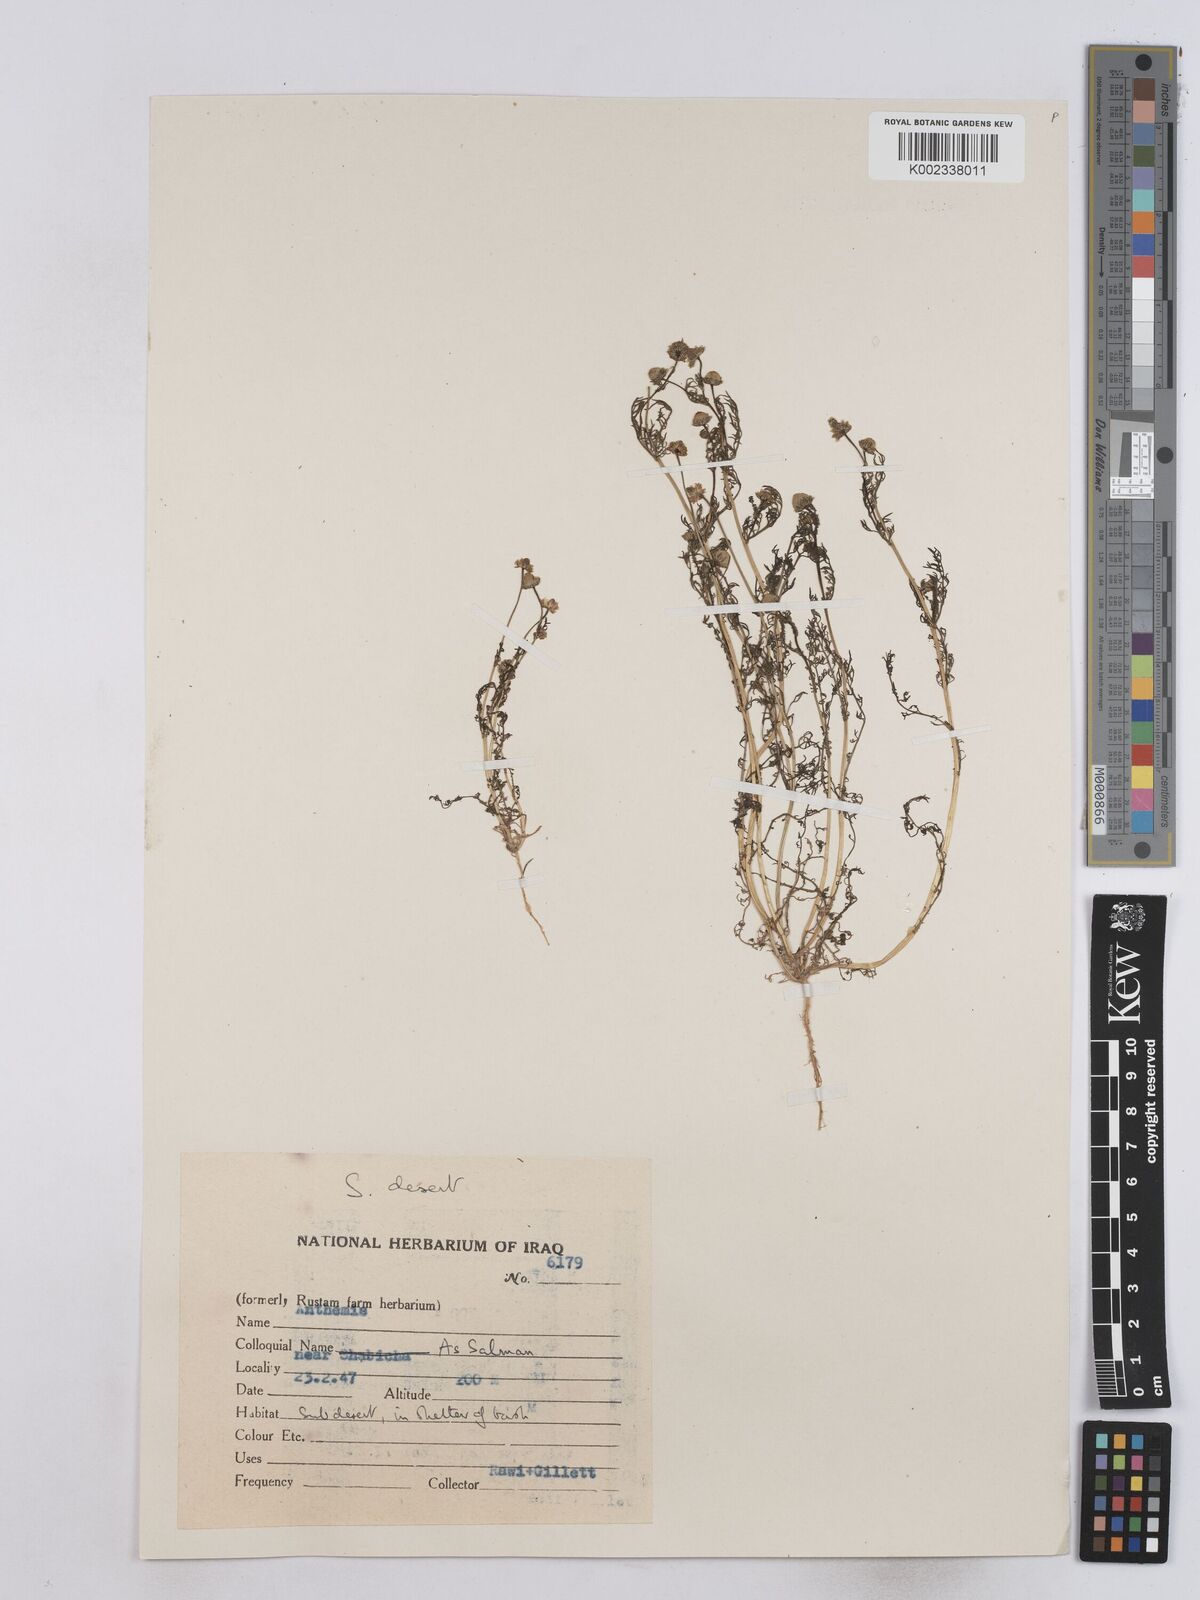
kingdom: Plantae
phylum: Tracheophyta
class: Magnoliopsida
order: Asterales
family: Asteraceae
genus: Matricaria
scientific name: Matricaria aurea
